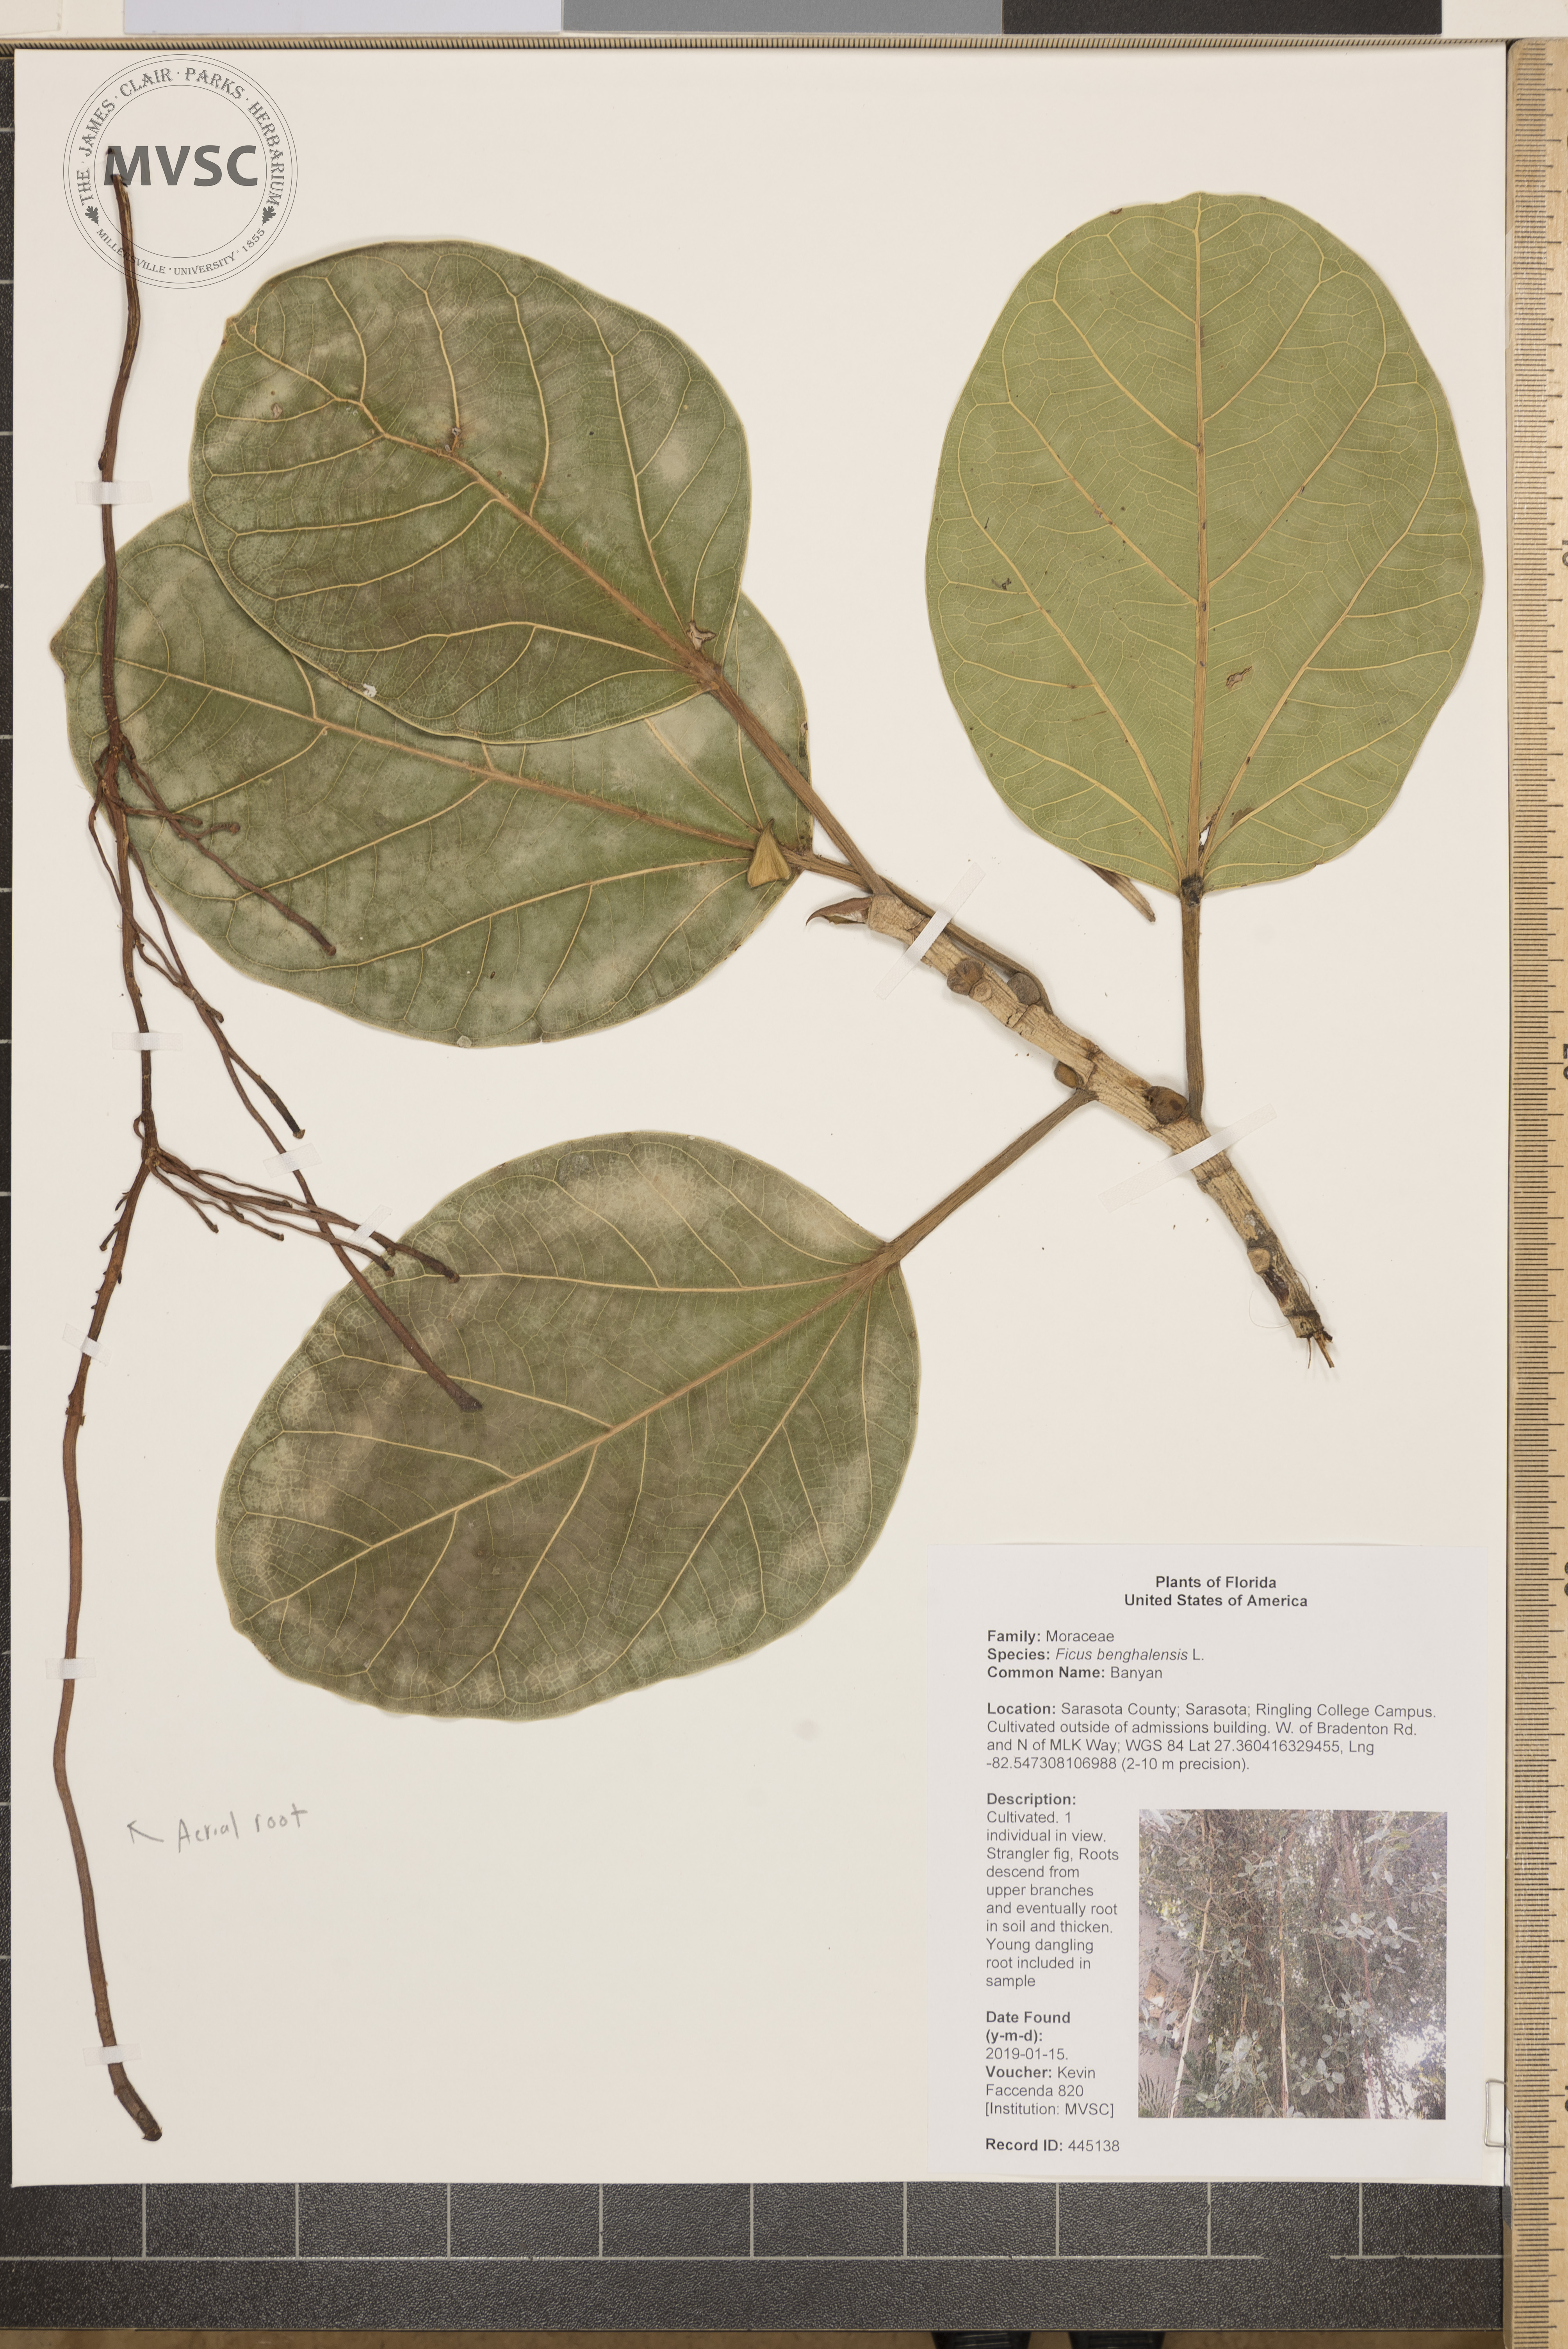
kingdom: Plantae
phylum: Tracheophyta
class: Magnoliopsida
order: Rosales
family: Moraceae
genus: Ficus
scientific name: Ficus benghalensis
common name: Banyan
